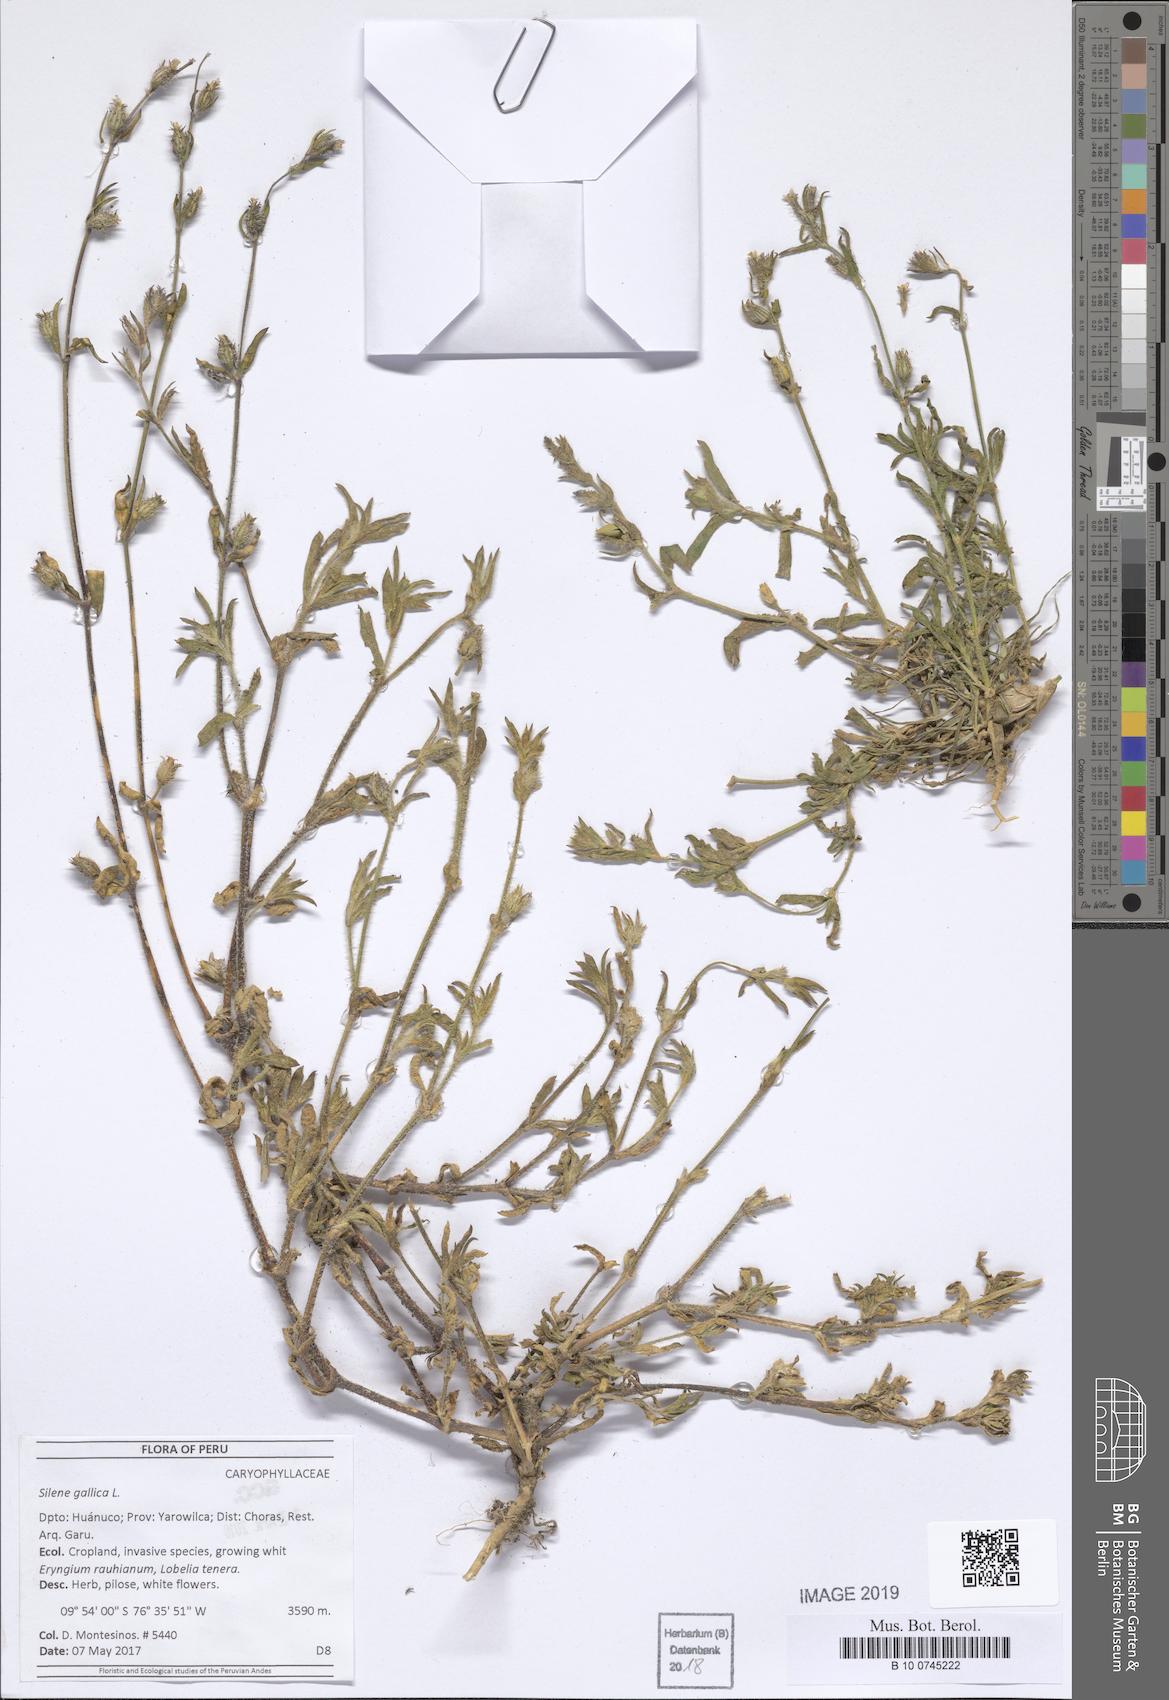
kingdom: Plantae
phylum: Tracheophyta
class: Magnoliopsida
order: Caryophyllales
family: Caryophyllaceae
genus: Silene
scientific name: Silene gallica
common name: Small-flowered catchfly
